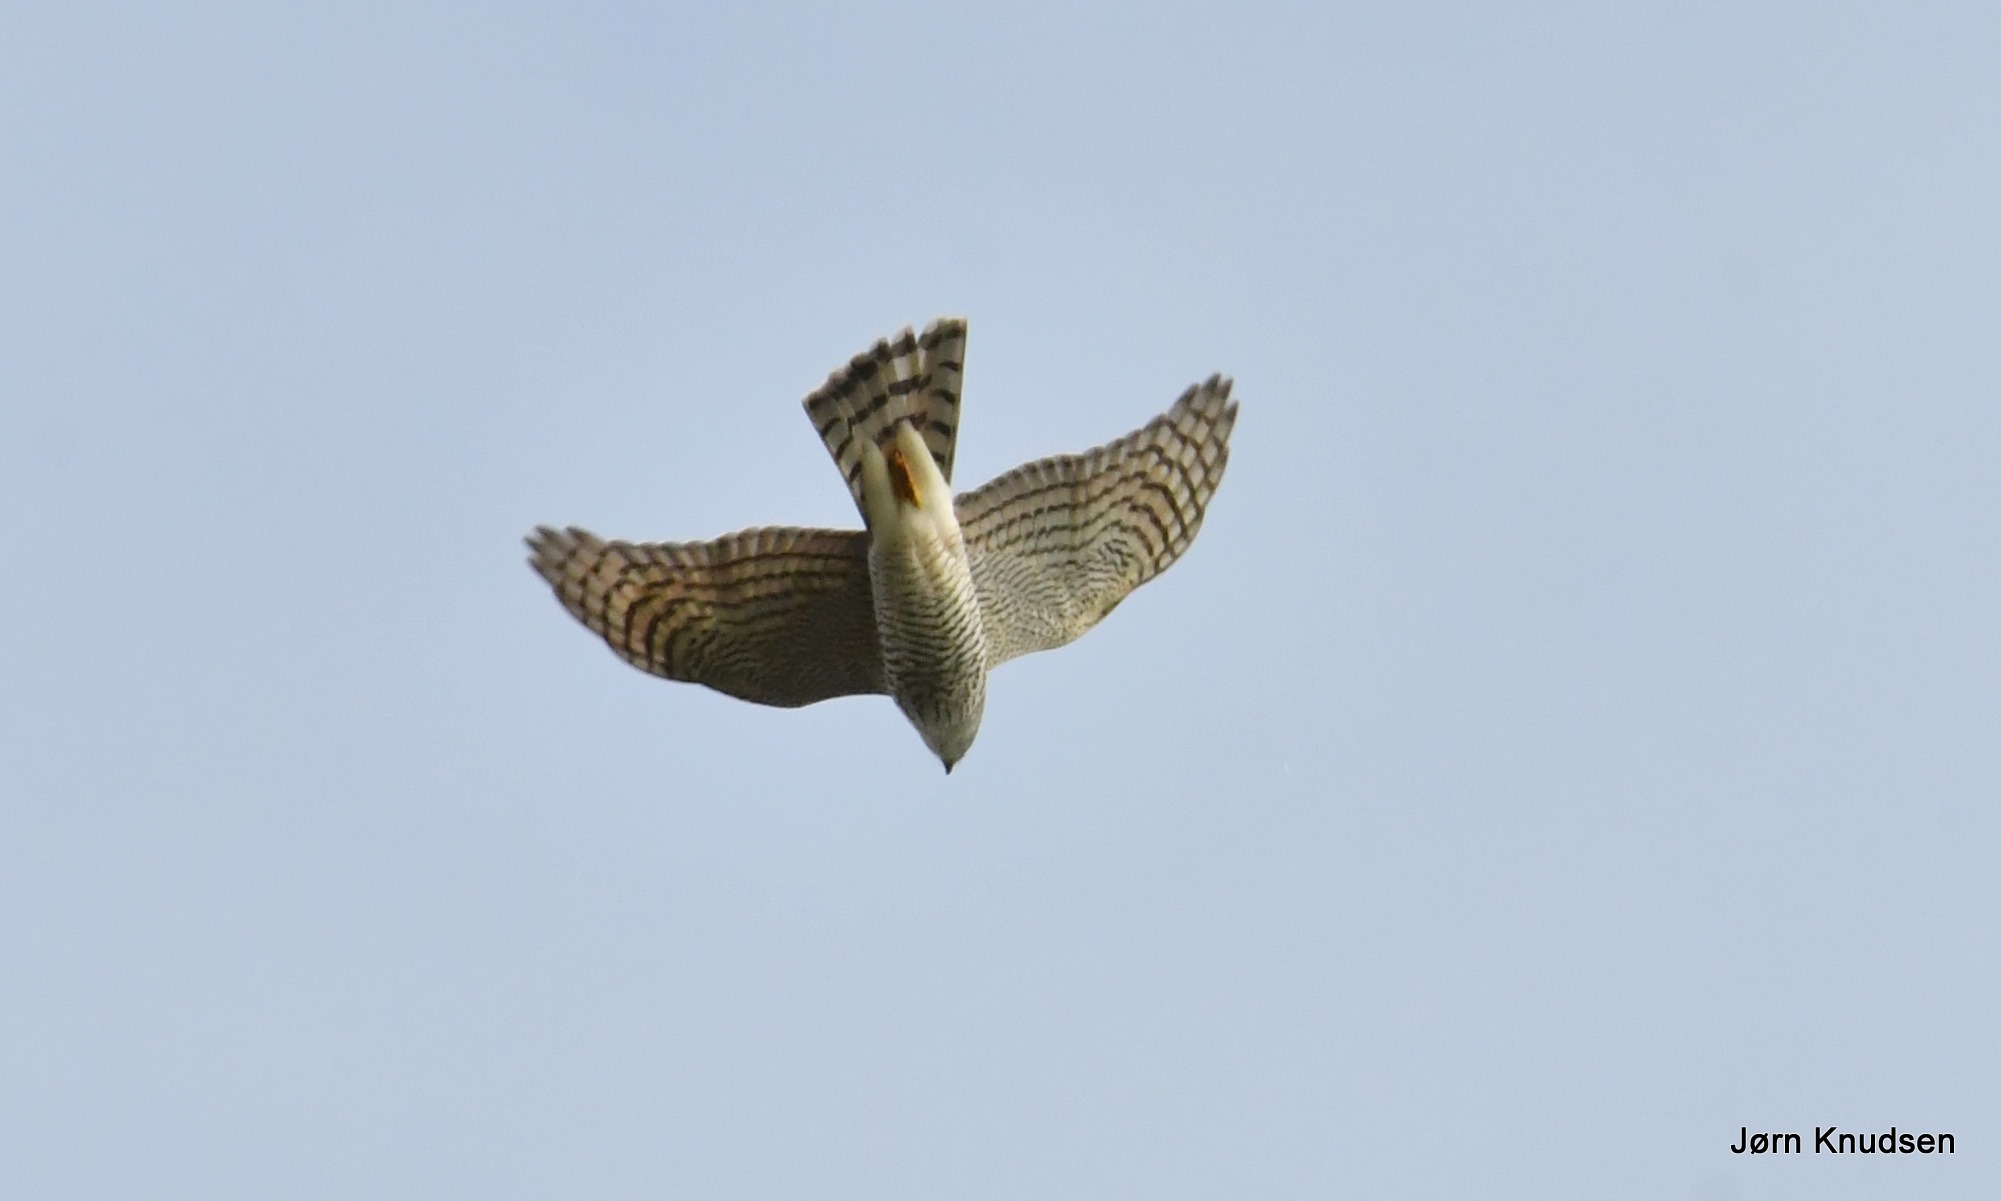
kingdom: Animalia
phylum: Chordata
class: Aves
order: Accipitriformes
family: Accipitridae
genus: Accipiter
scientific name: Accipiter nisus
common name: Spurvehøg
